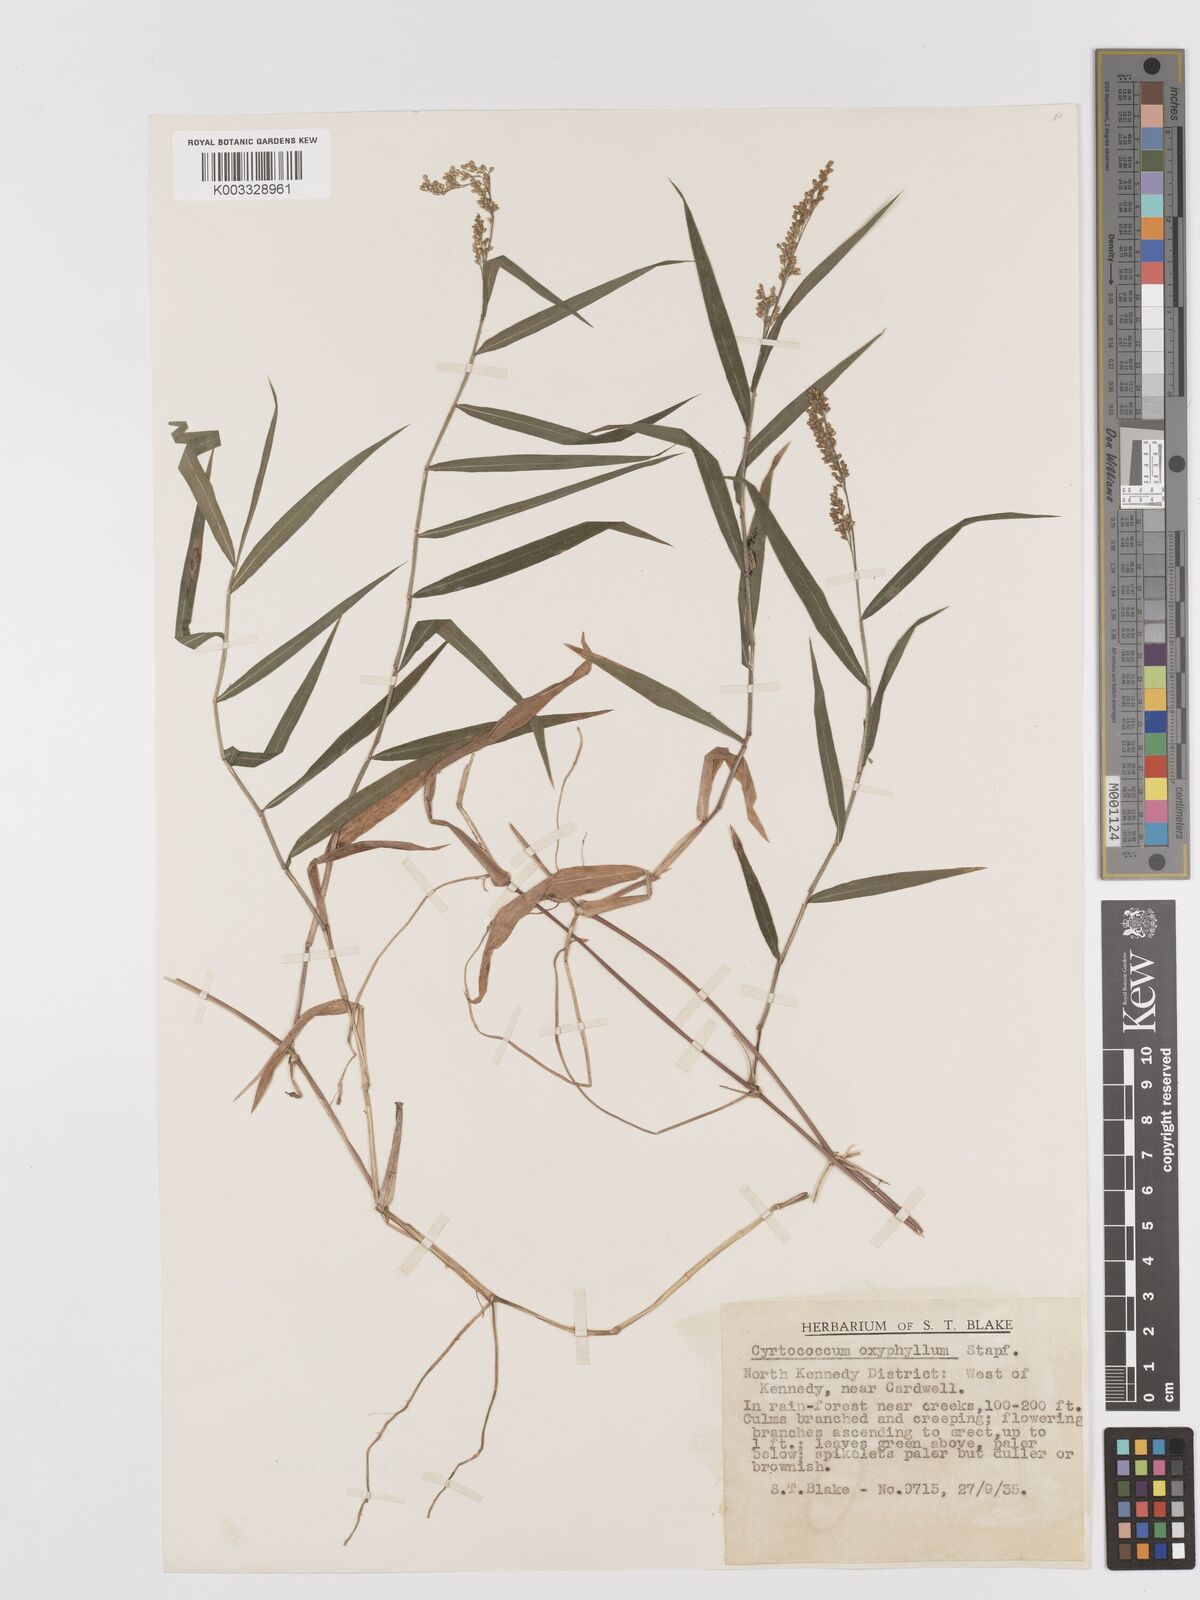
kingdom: Plantae
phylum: Tracheophyta
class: Liliopsida
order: Poales
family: Poaceae
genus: Cyrtococcum
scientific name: Cyrtococcum oxyphyllum
